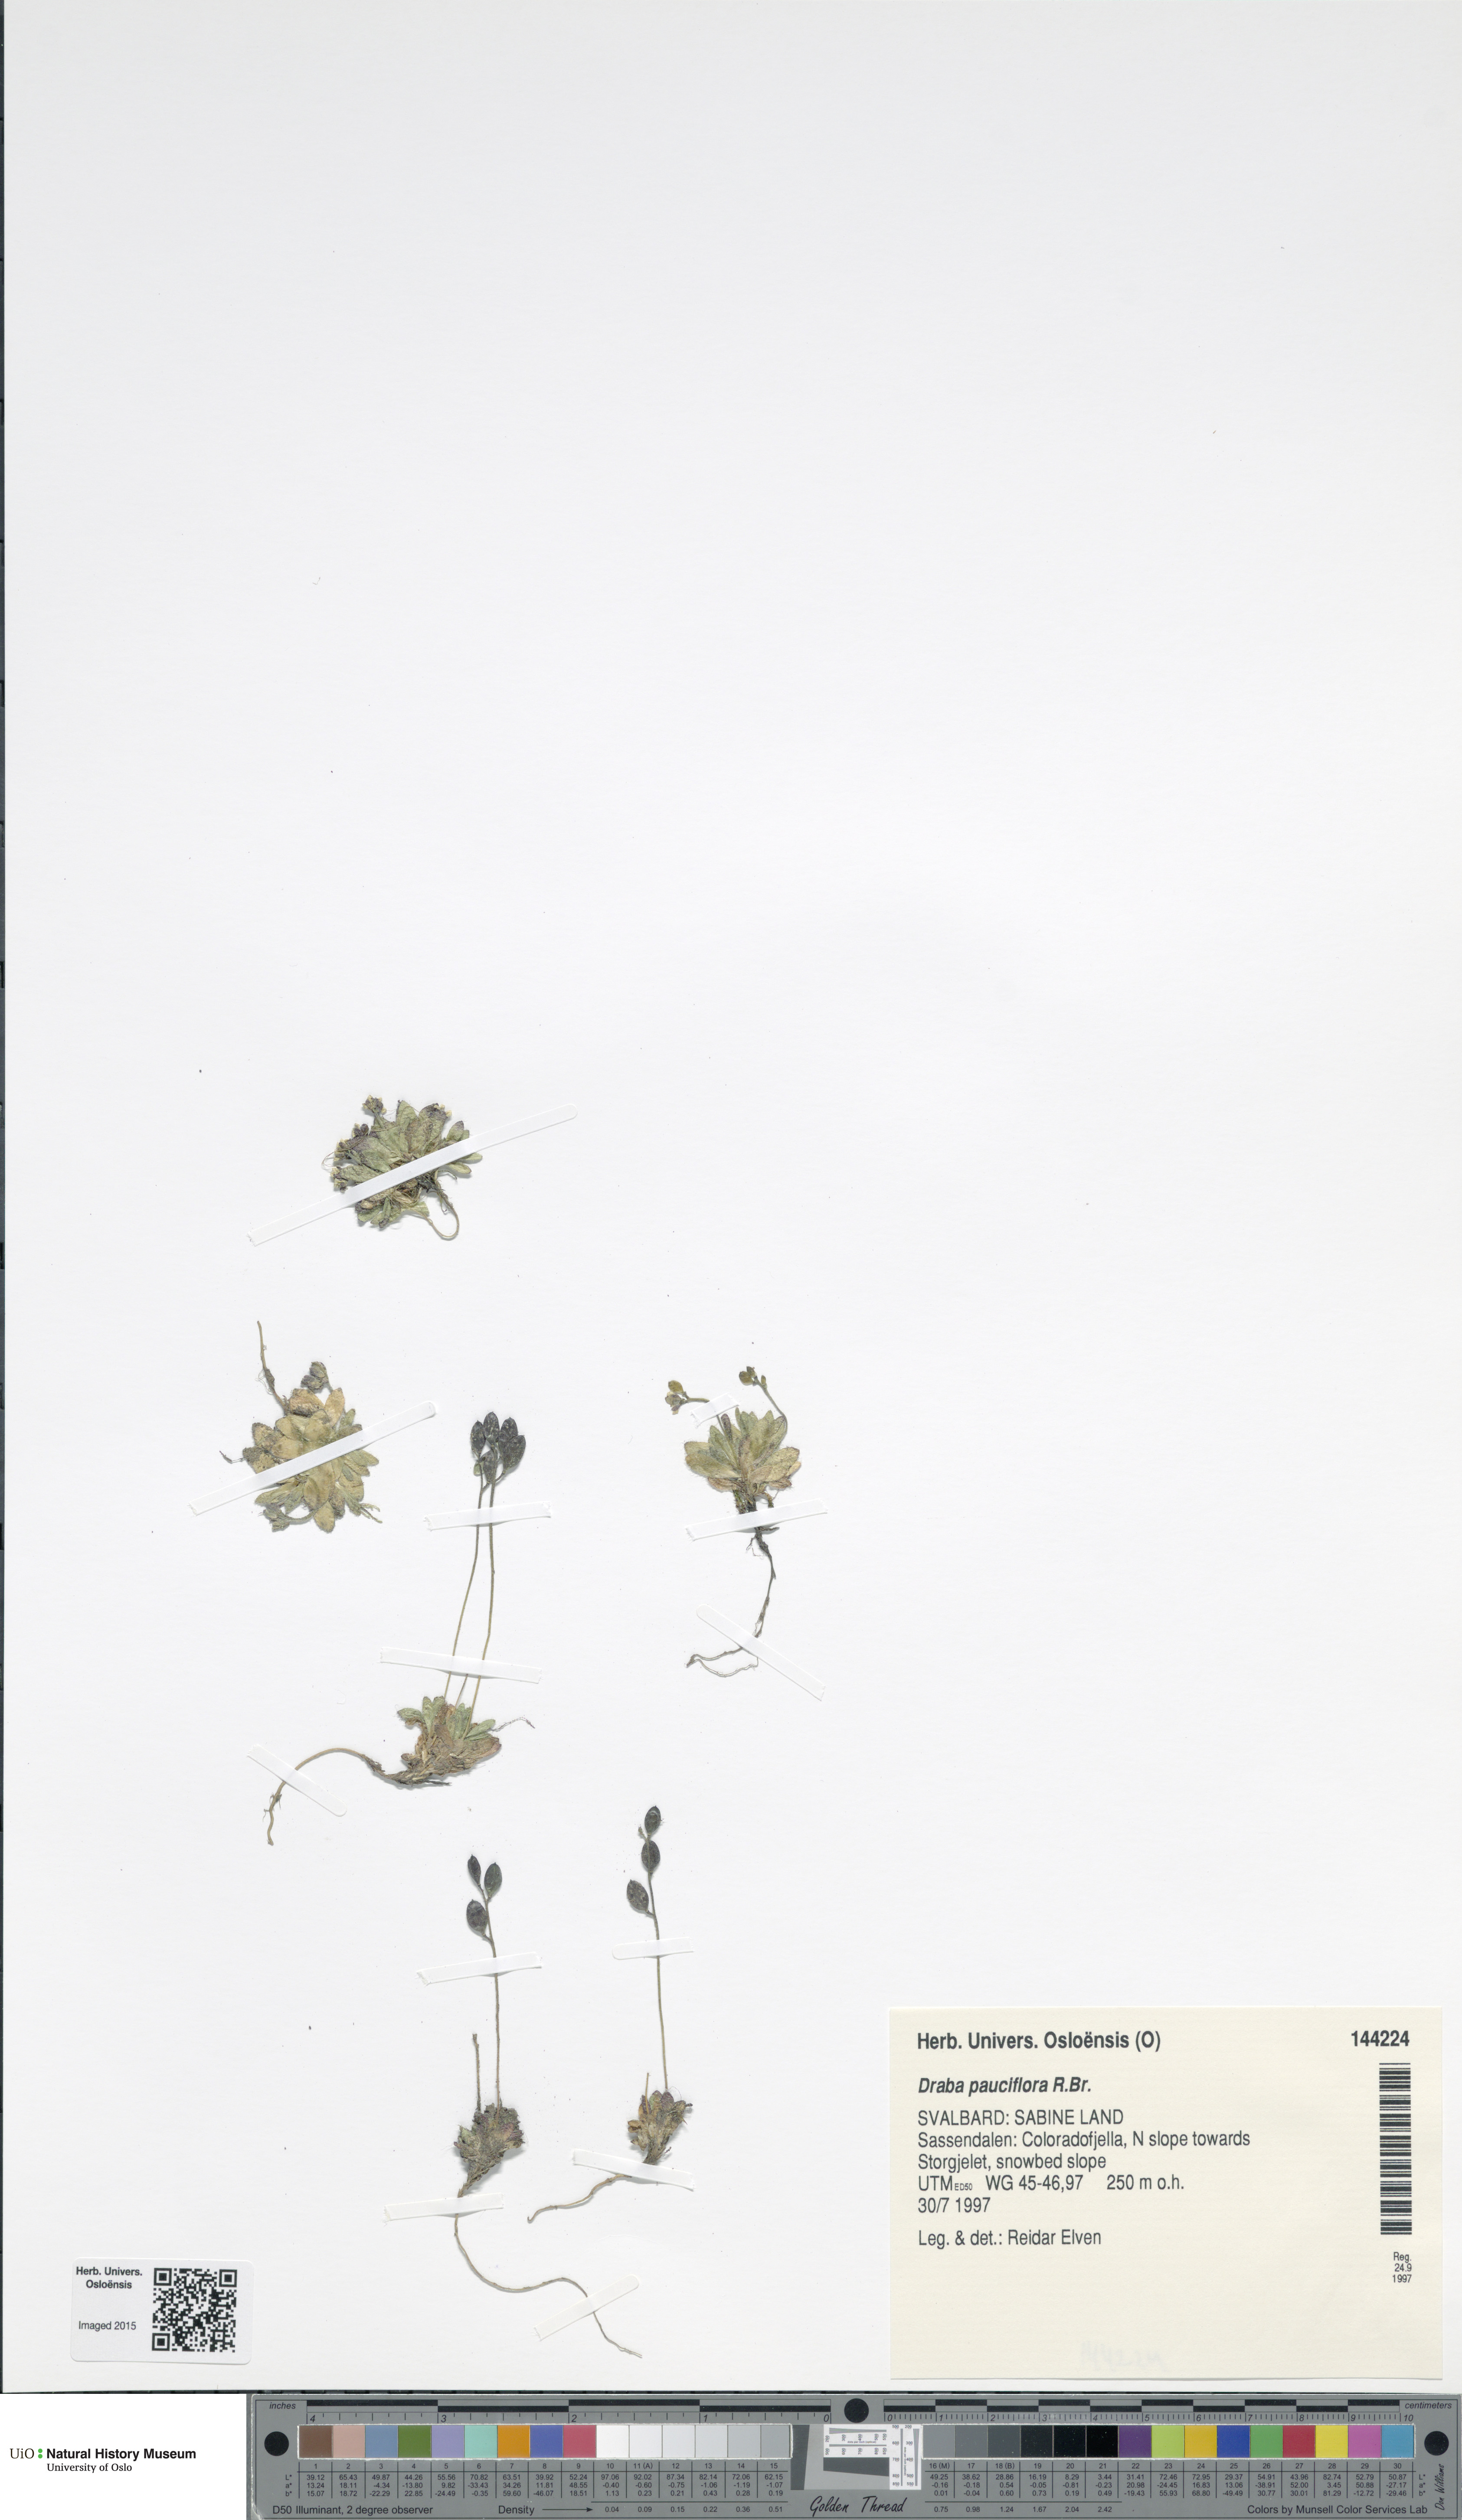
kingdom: Plantae
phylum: Tracheophyta
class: Magnoliopsida
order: Brassicales
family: Brassicaceae
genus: Draba
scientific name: Draba pauciflora
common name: Few-flowered draba
